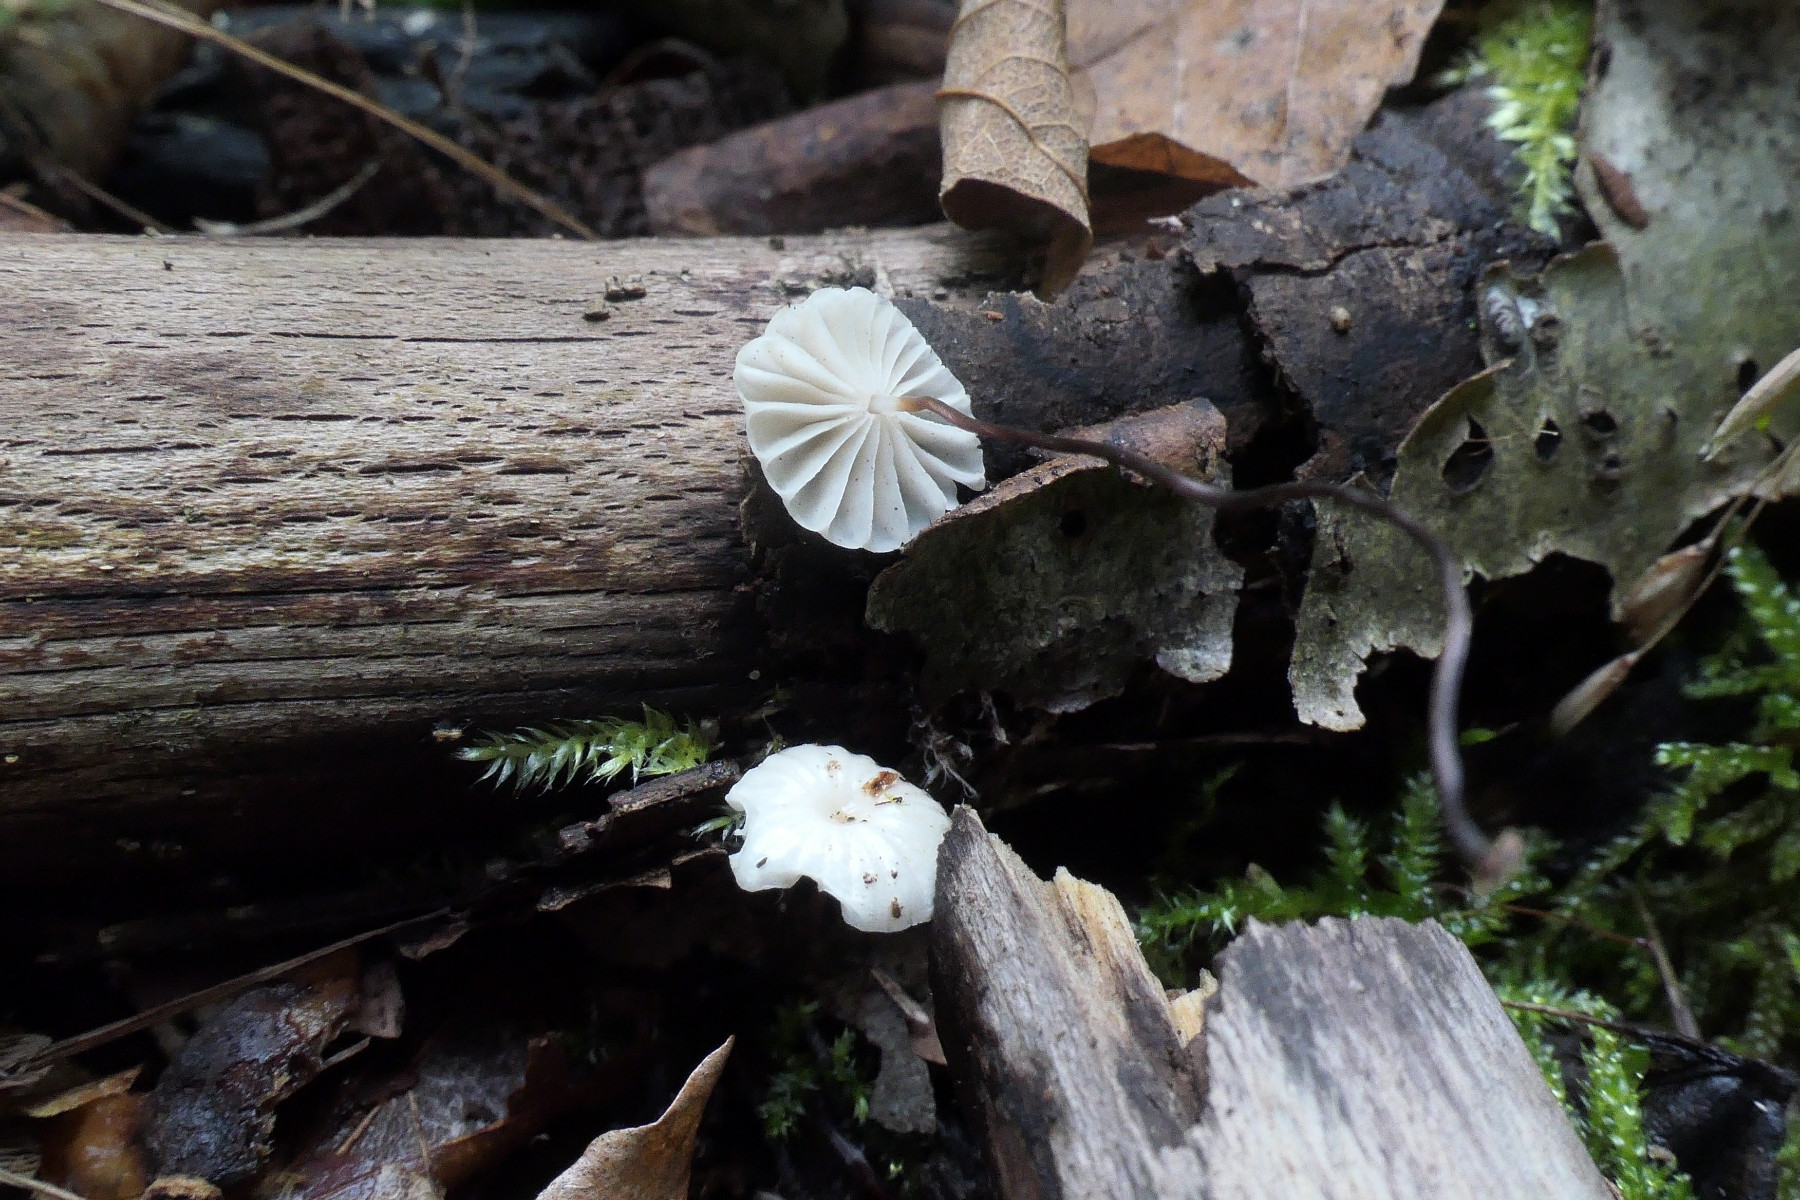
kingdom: Fungi
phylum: Basidiomycota
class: Agaricomycetes
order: Agaricales
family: Marasmiaceae
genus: Marasmius
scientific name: Marasmius rotula
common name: hjul-bruskhat
